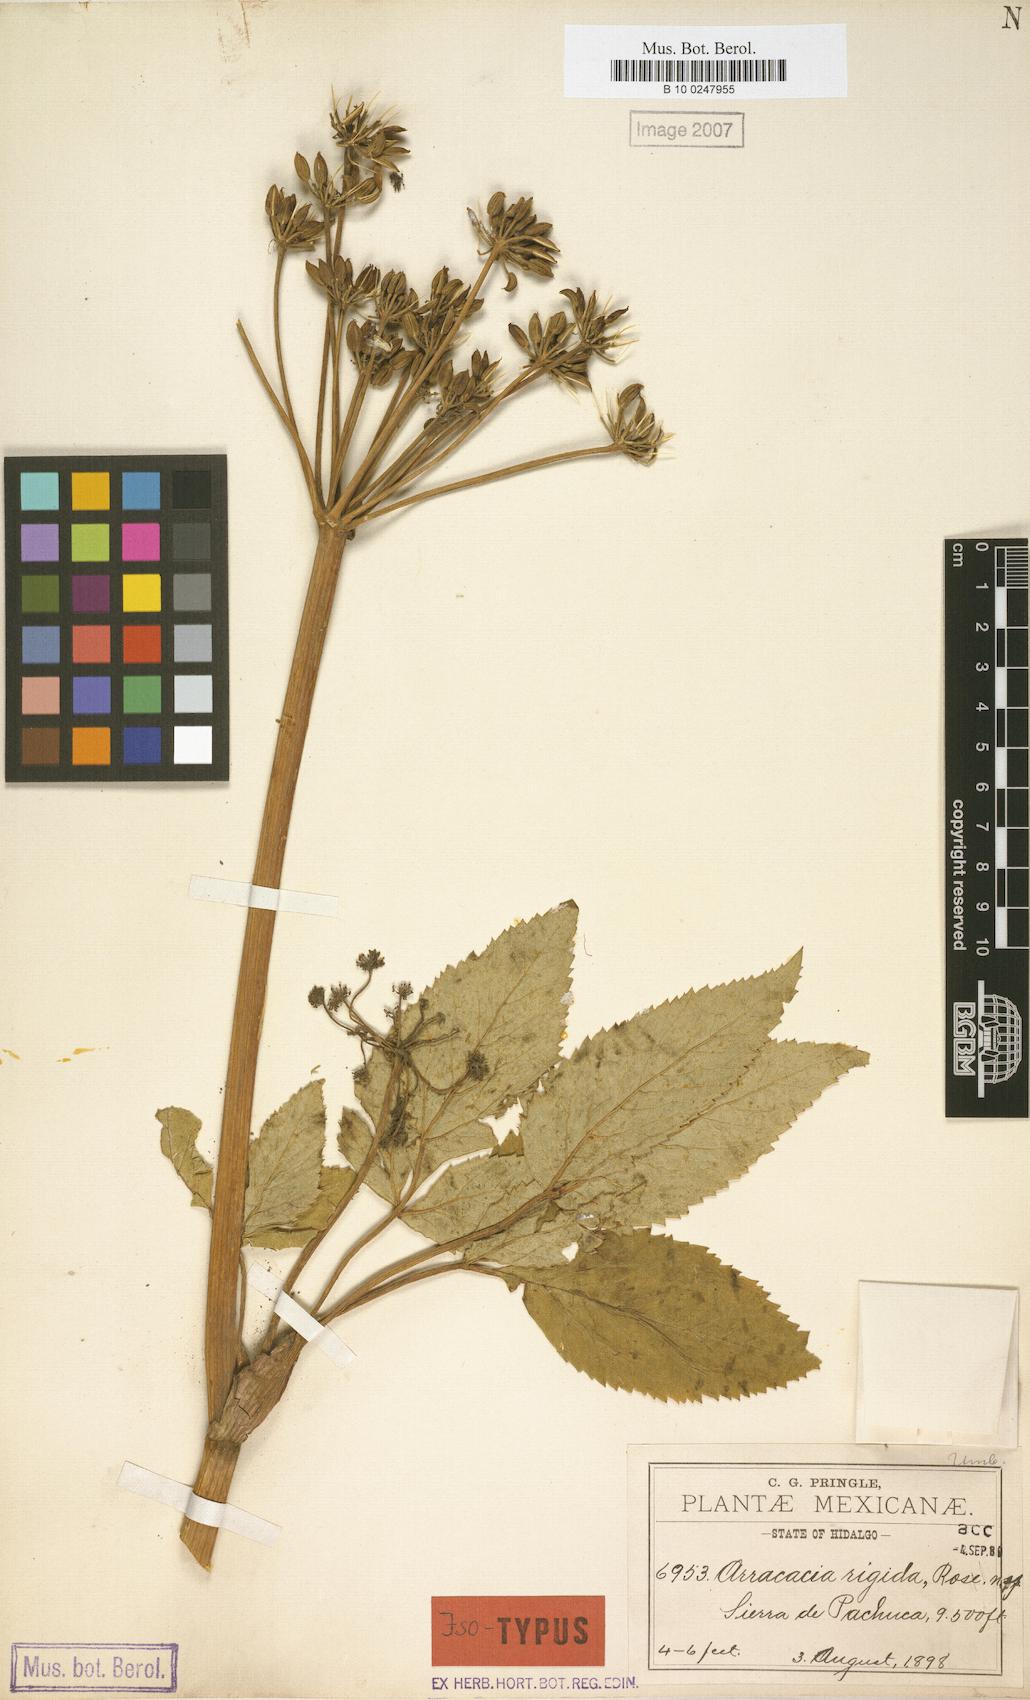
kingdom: Plantae
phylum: Tracheophyta
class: Magnoliopsida
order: Apiales
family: Apiaceae
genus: Arracacia
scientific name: Arracacia rigida
